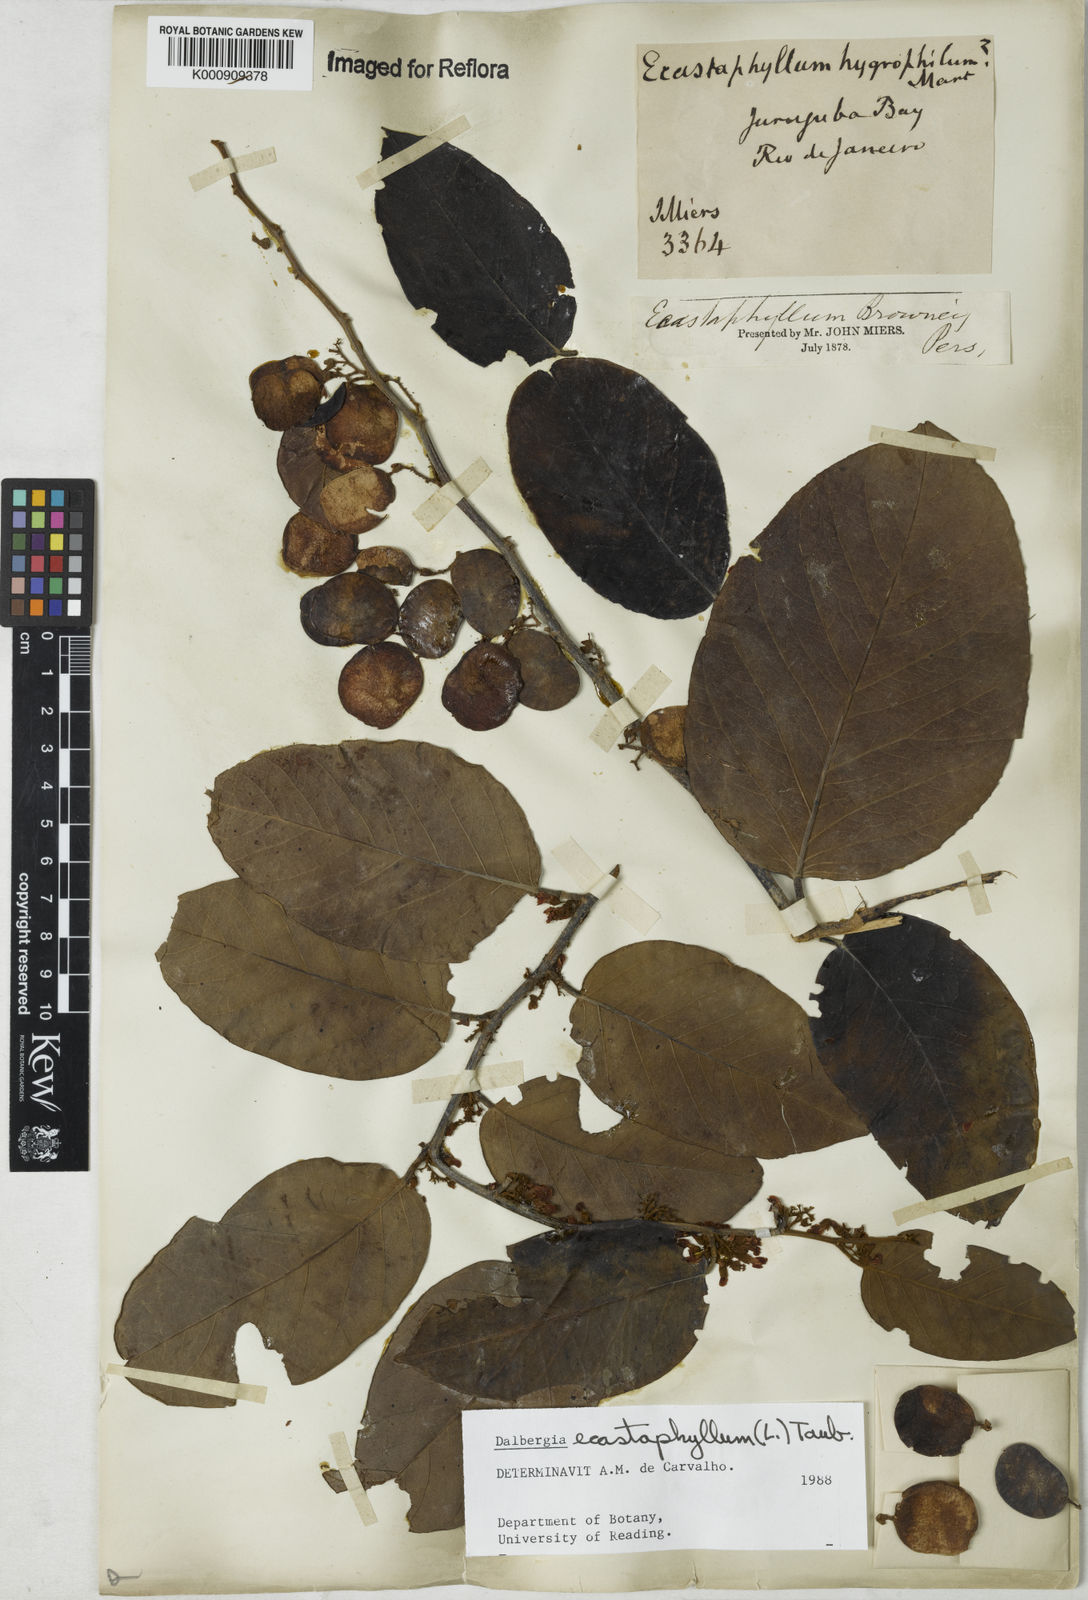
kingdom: Plantae
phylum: Tracheophyta
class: Magnoliopsida
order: Fabales
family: Fabaceae
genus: Dalbergia
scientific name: Dalbergia ecastaphyllum
